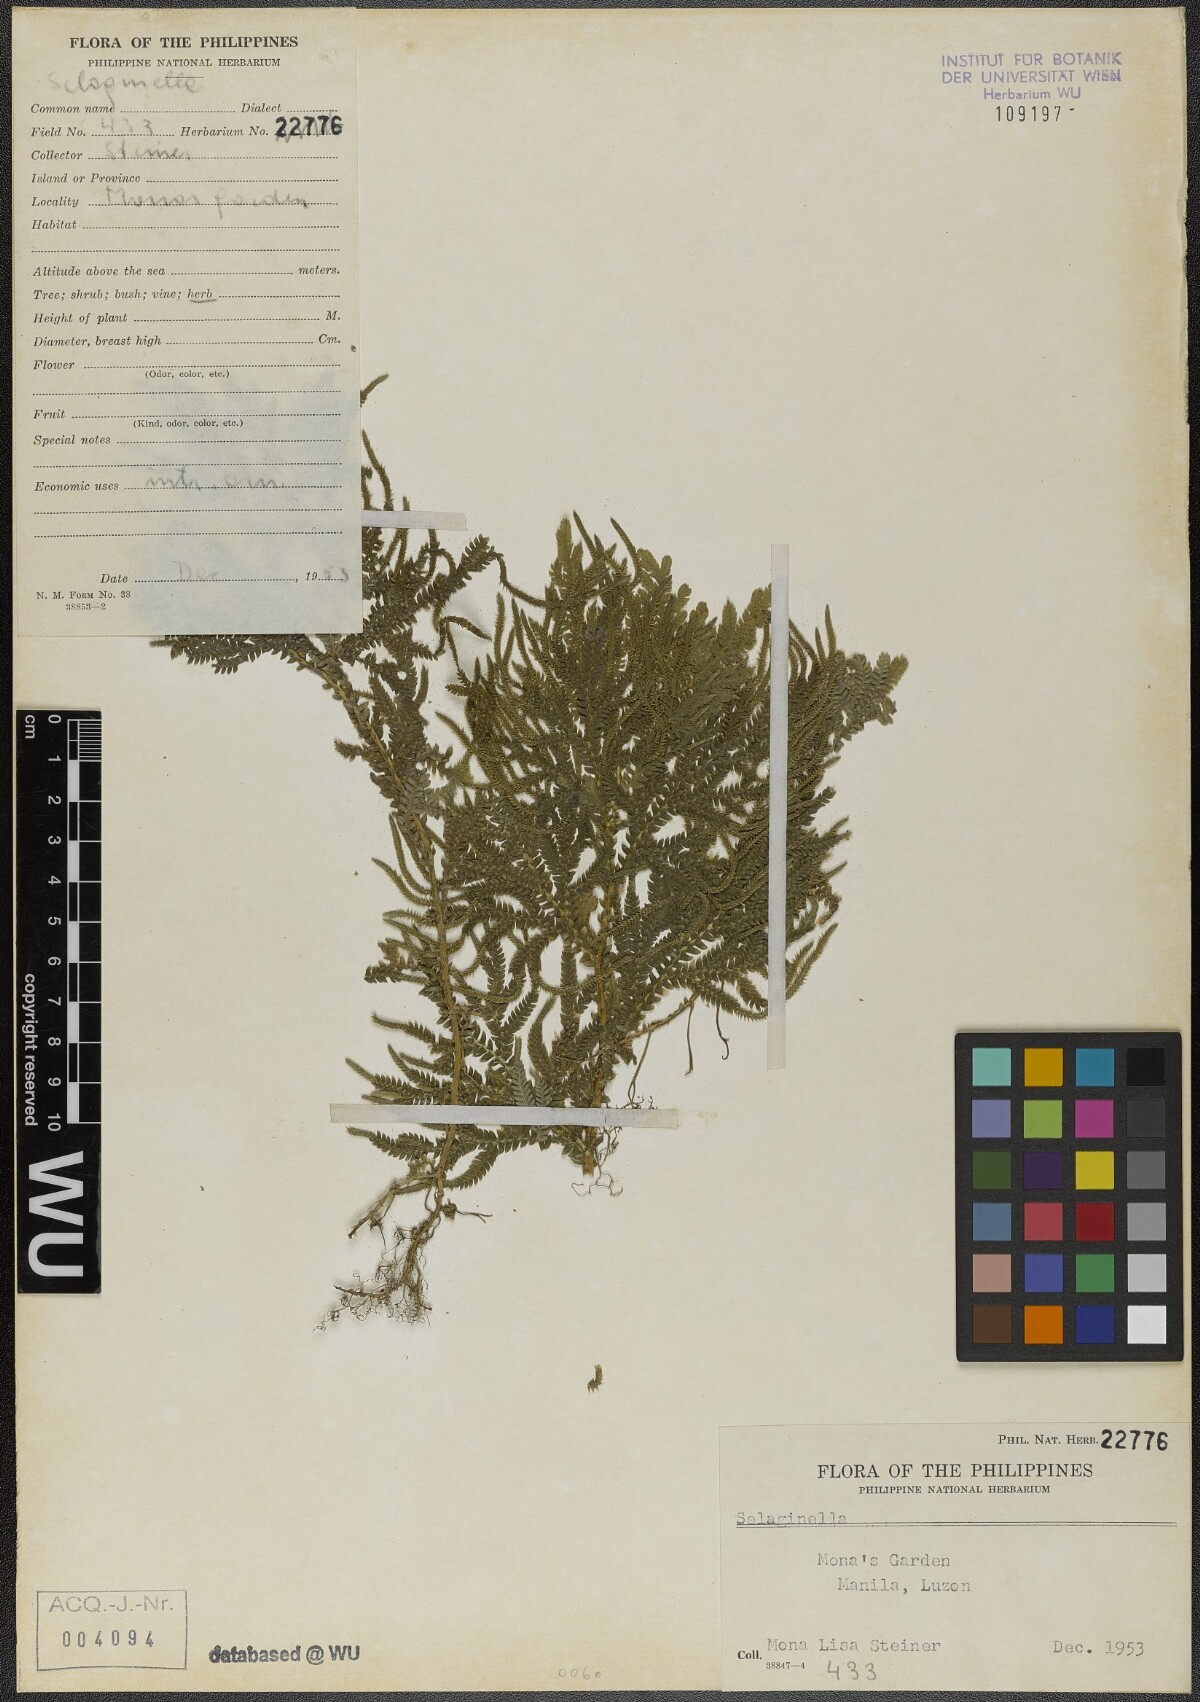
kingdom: Plantae
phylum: Tracheophyta
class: Lycopodiopsida
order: Selaginellales
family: Selaginellaceae
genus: Selaginella
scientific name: Selaginella
